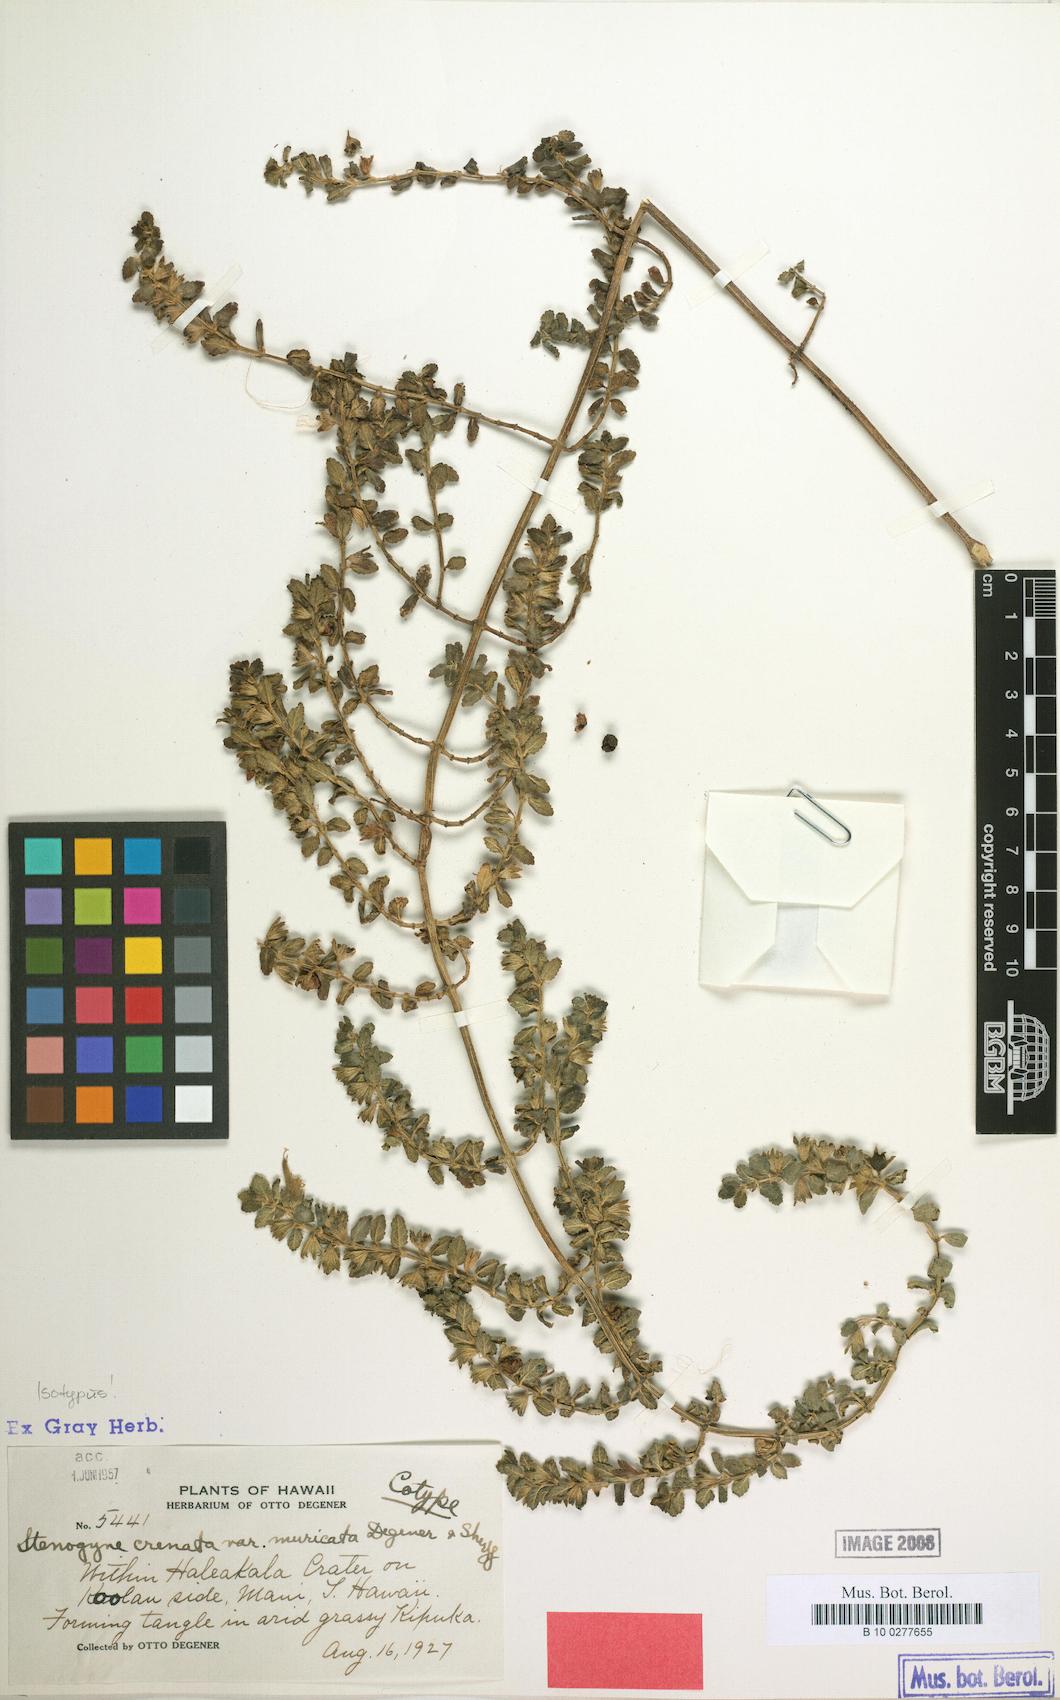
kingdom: Plantae
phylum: Tracheophyta
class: Magnoliopsida
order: Lamiales
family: Lamiaceae
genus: Stenogyne
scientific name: Stenogyne microphylla
